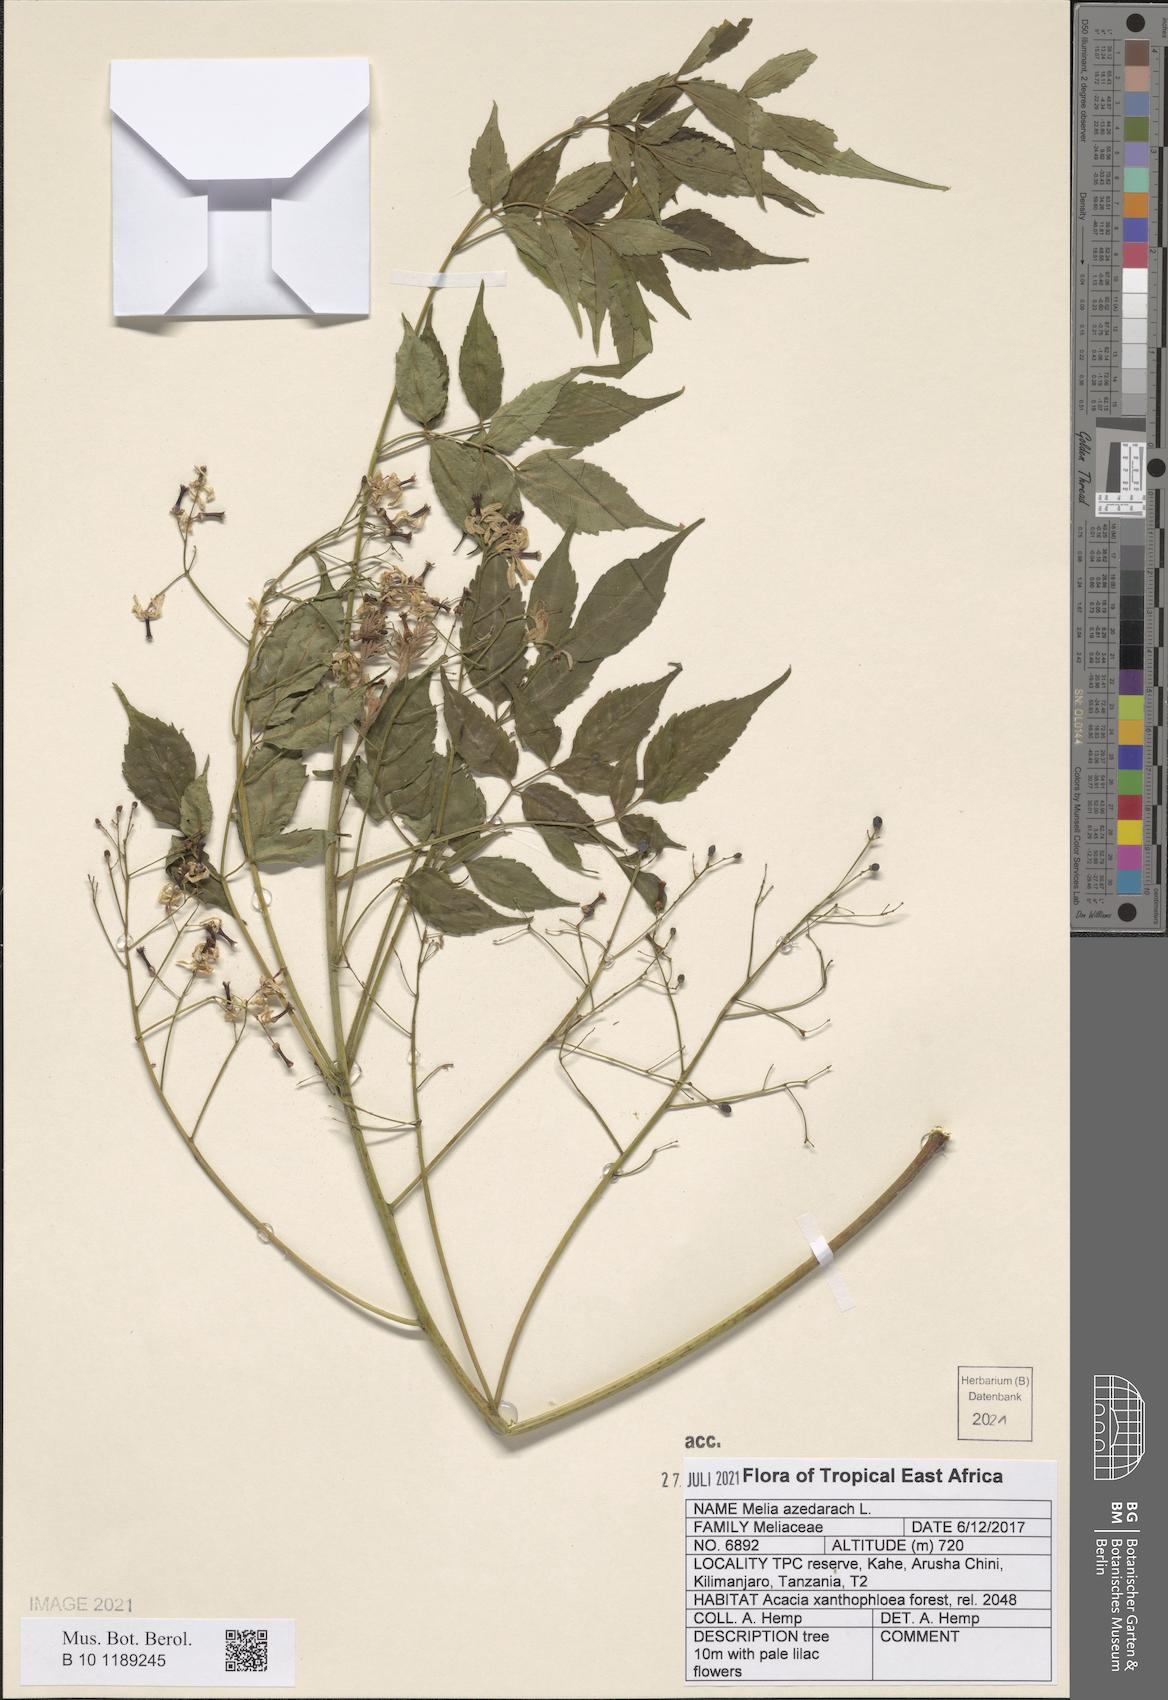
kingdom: Plantae
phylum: Tracheophyta
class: Magnoliopsida
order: Sapindales
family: Meliaceae
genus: Melia
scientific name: Melia azedarach
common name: Chinaberrytree
